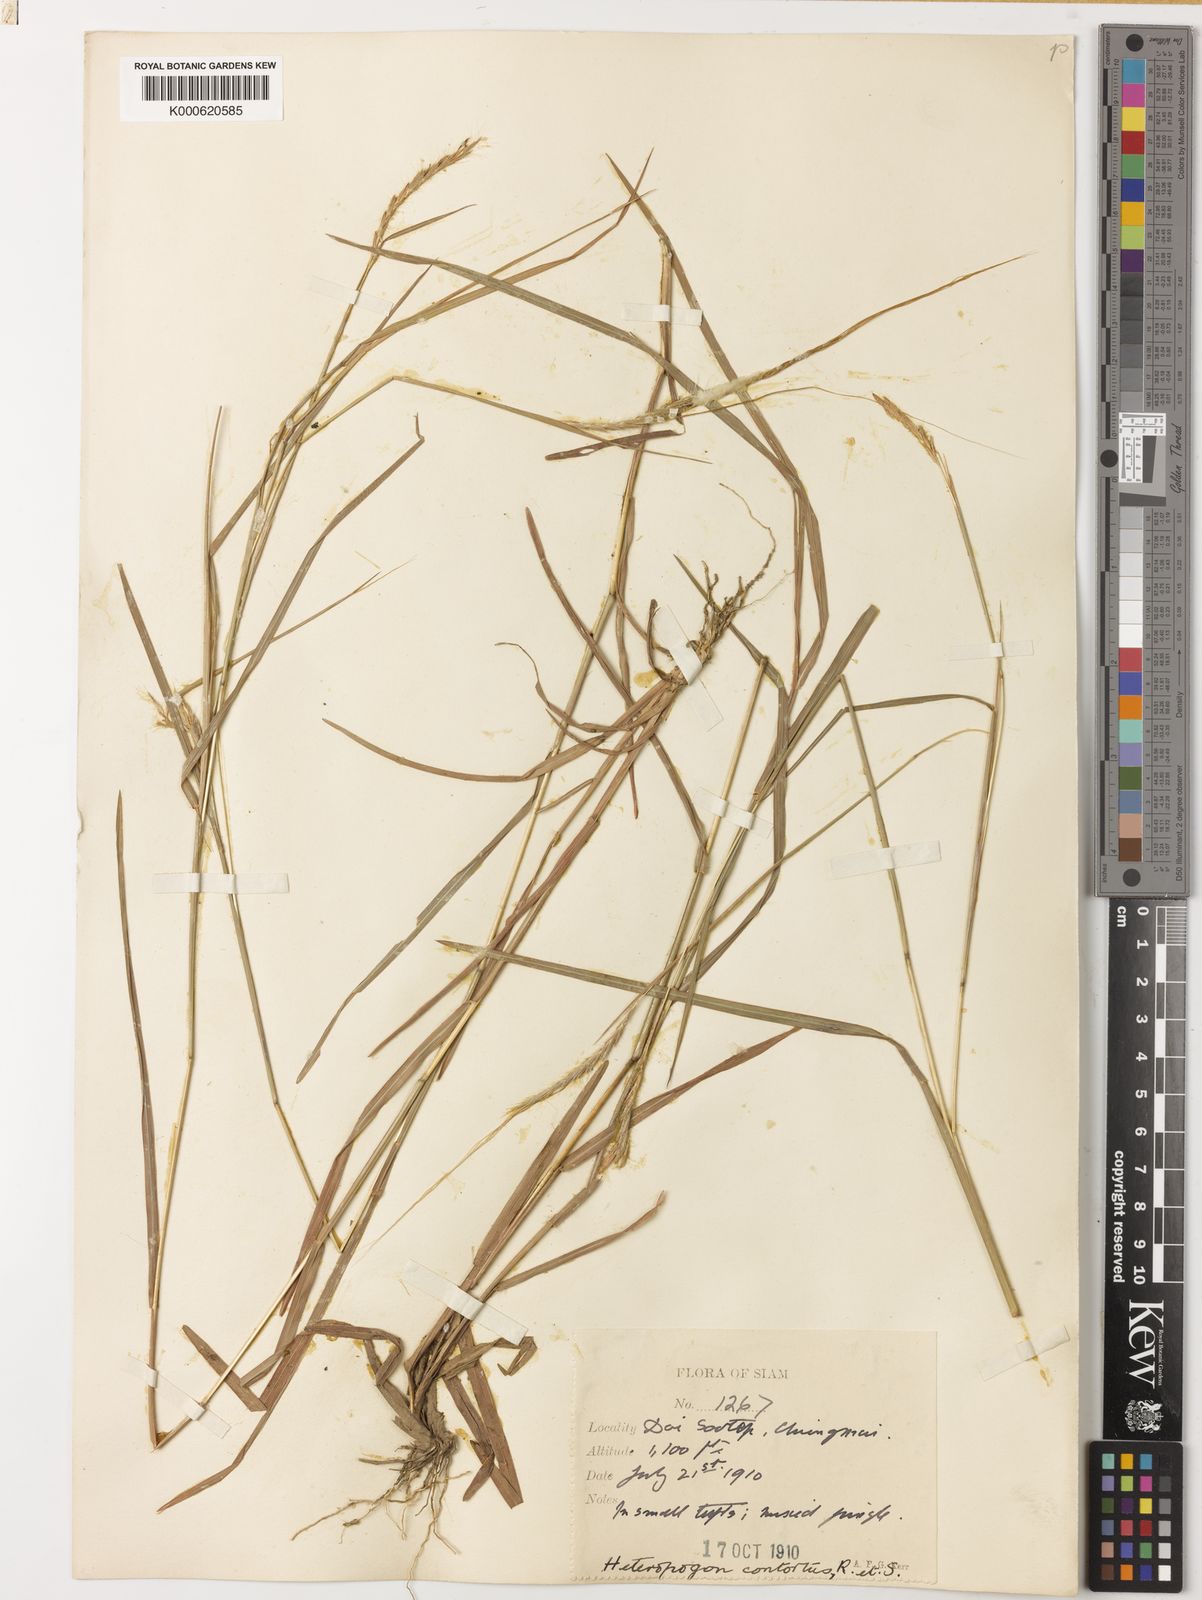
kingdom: Plantae
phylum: Tracheophyta
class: Liliopsida
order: Poales
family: Poaceae
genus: Heteropogon
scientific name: Heteropogon contortus
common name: Tanglehead
